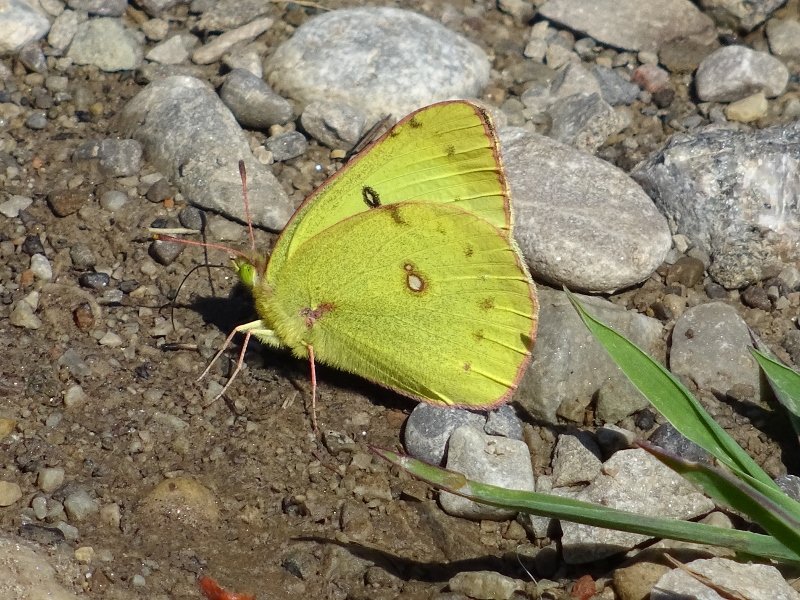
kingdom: Animalia
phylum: Arthropoda
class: Insecta
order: Lepidoptera
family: Pieridae
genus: Colias
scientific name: Colias philodice
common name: Clouded Sulphur
